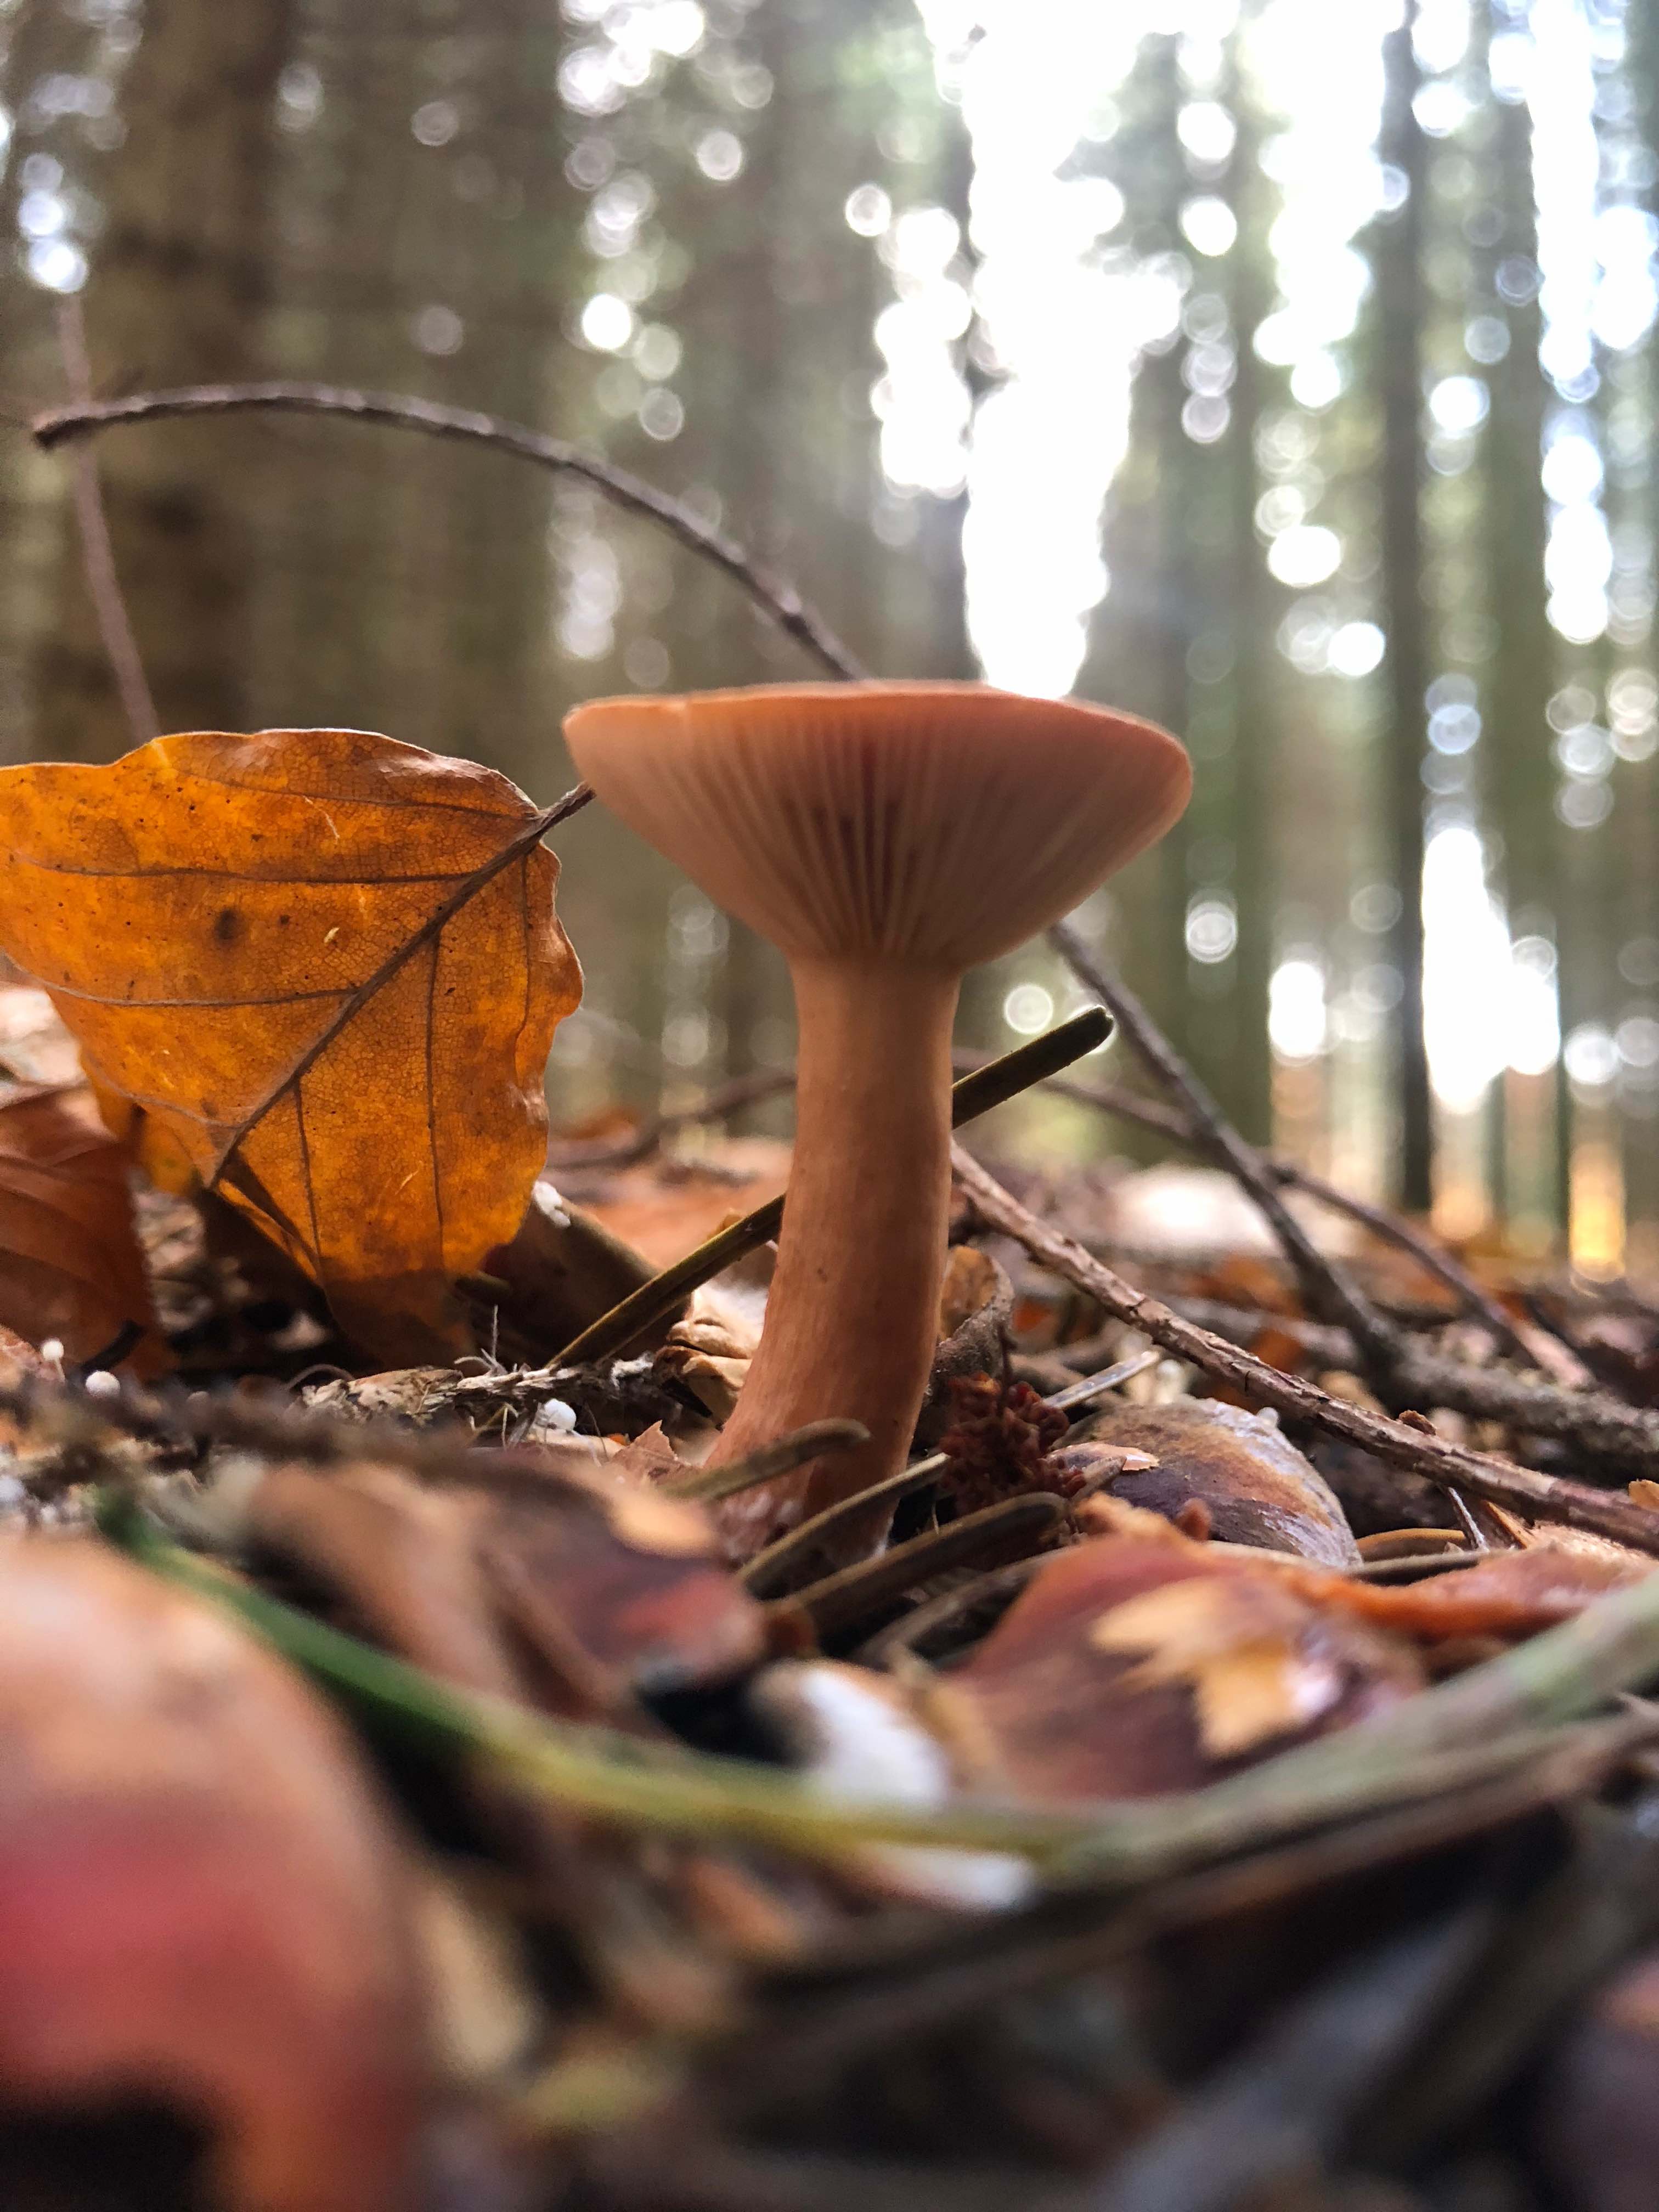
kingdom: Fungi
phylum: Basidiomycota
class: Agaricomycetes
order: Russulales
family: Russulaceae
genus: Lactarius
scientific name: Lactarius tabidus
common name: rynket mælkehat
